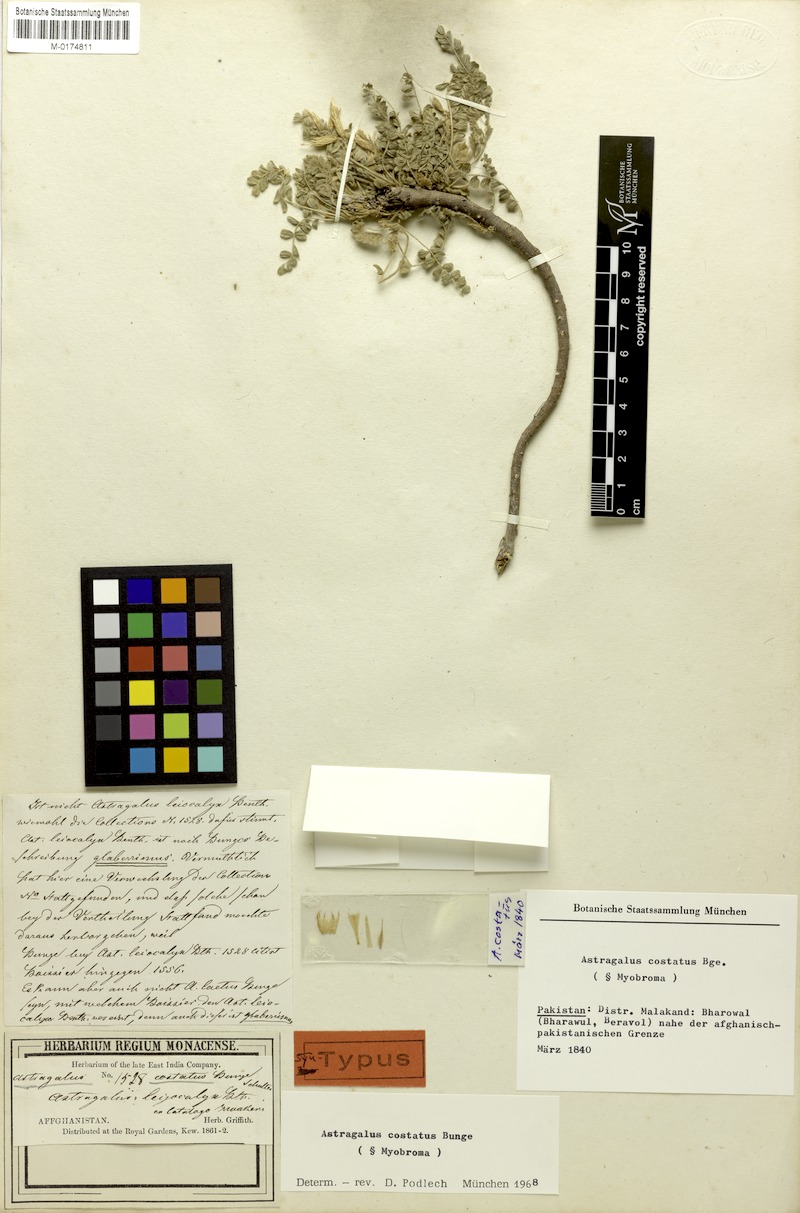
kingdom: Plantae
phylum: Tracheophyta
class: Magnoliopsida
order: Fabales
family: Fabaceae
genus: Astragalus
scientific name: Astragalus costatus
